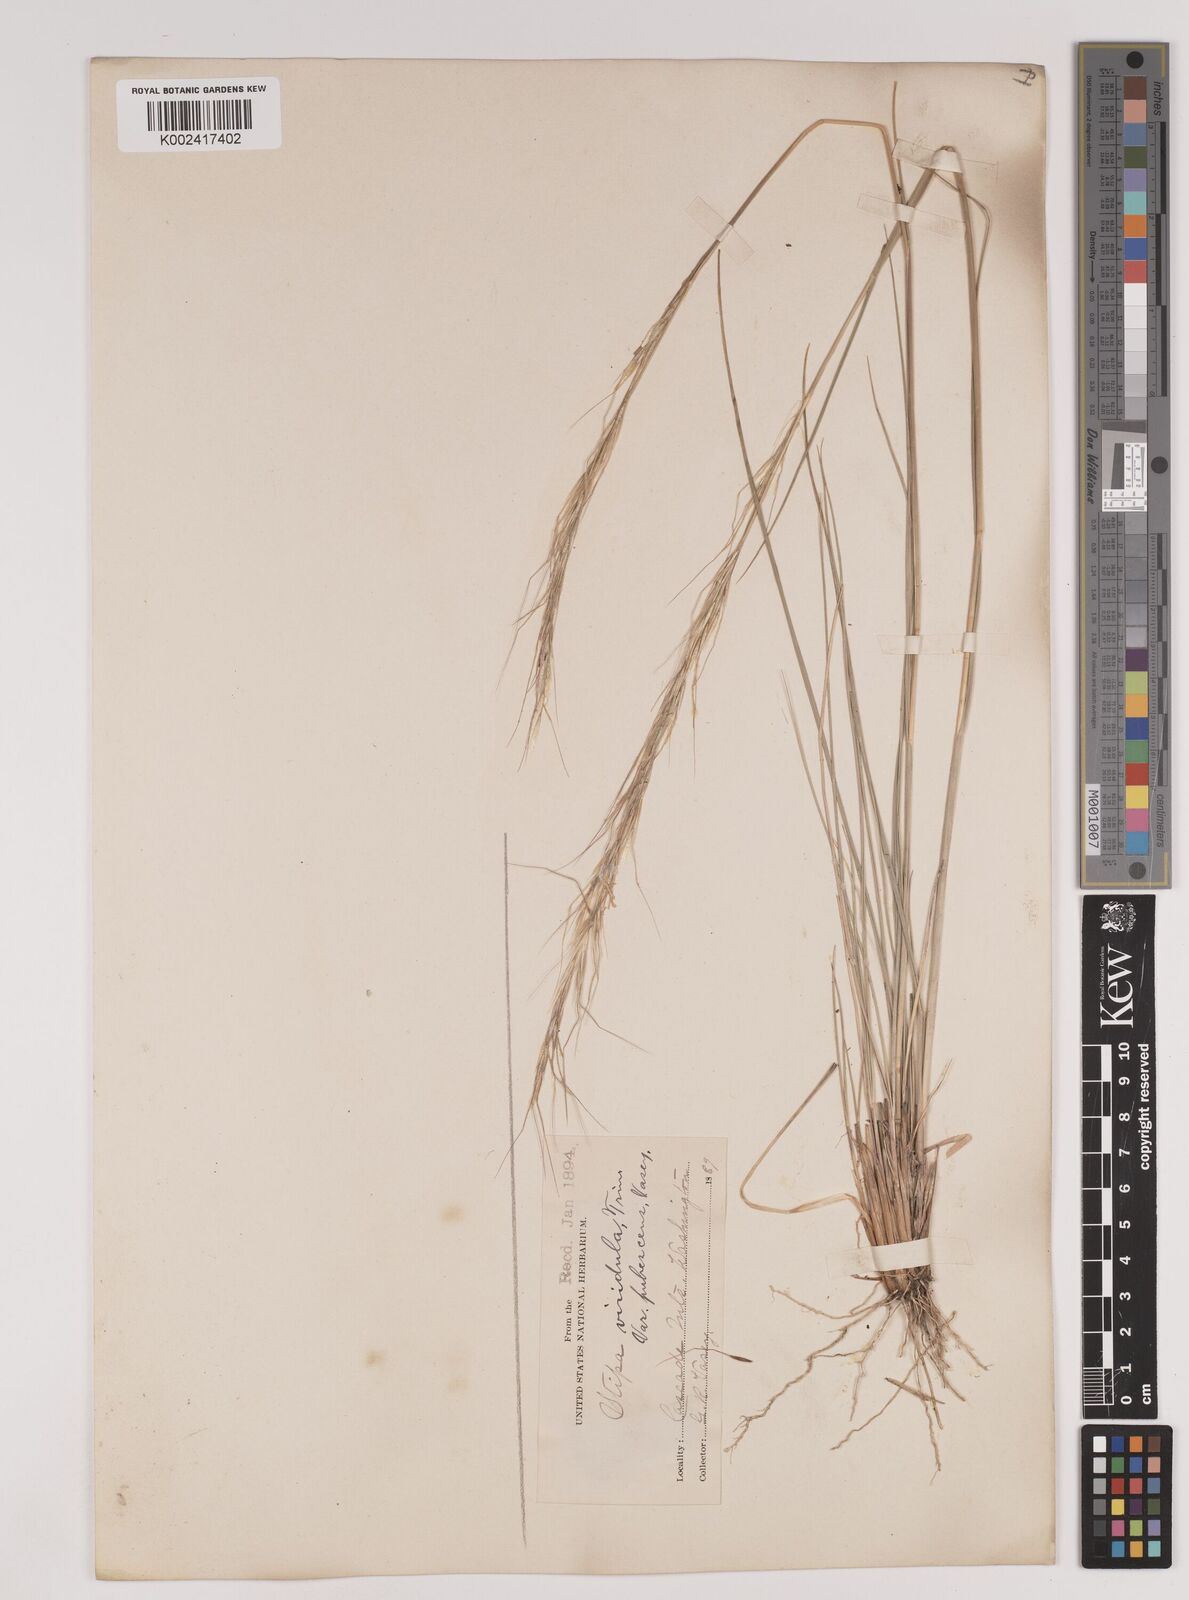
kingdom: Plantae
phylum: Tracheophyta
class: Liliopsida
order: Poales
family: Poaceae
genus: Nassella
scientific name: Nassella viridula
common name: Green needlegrass
